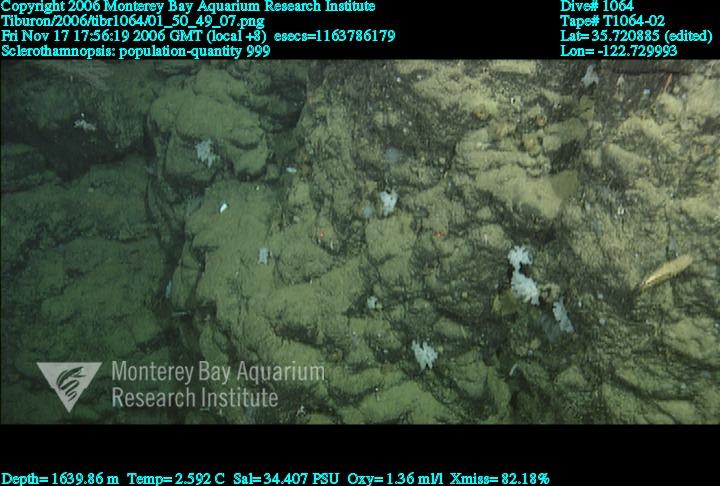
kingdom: Animalia
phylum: Porifera
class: Hexactinellida
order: Sceptrulophora
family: Tretodictyidae
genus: Sclerothamnopsis
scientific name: Sclerothamnopsis
